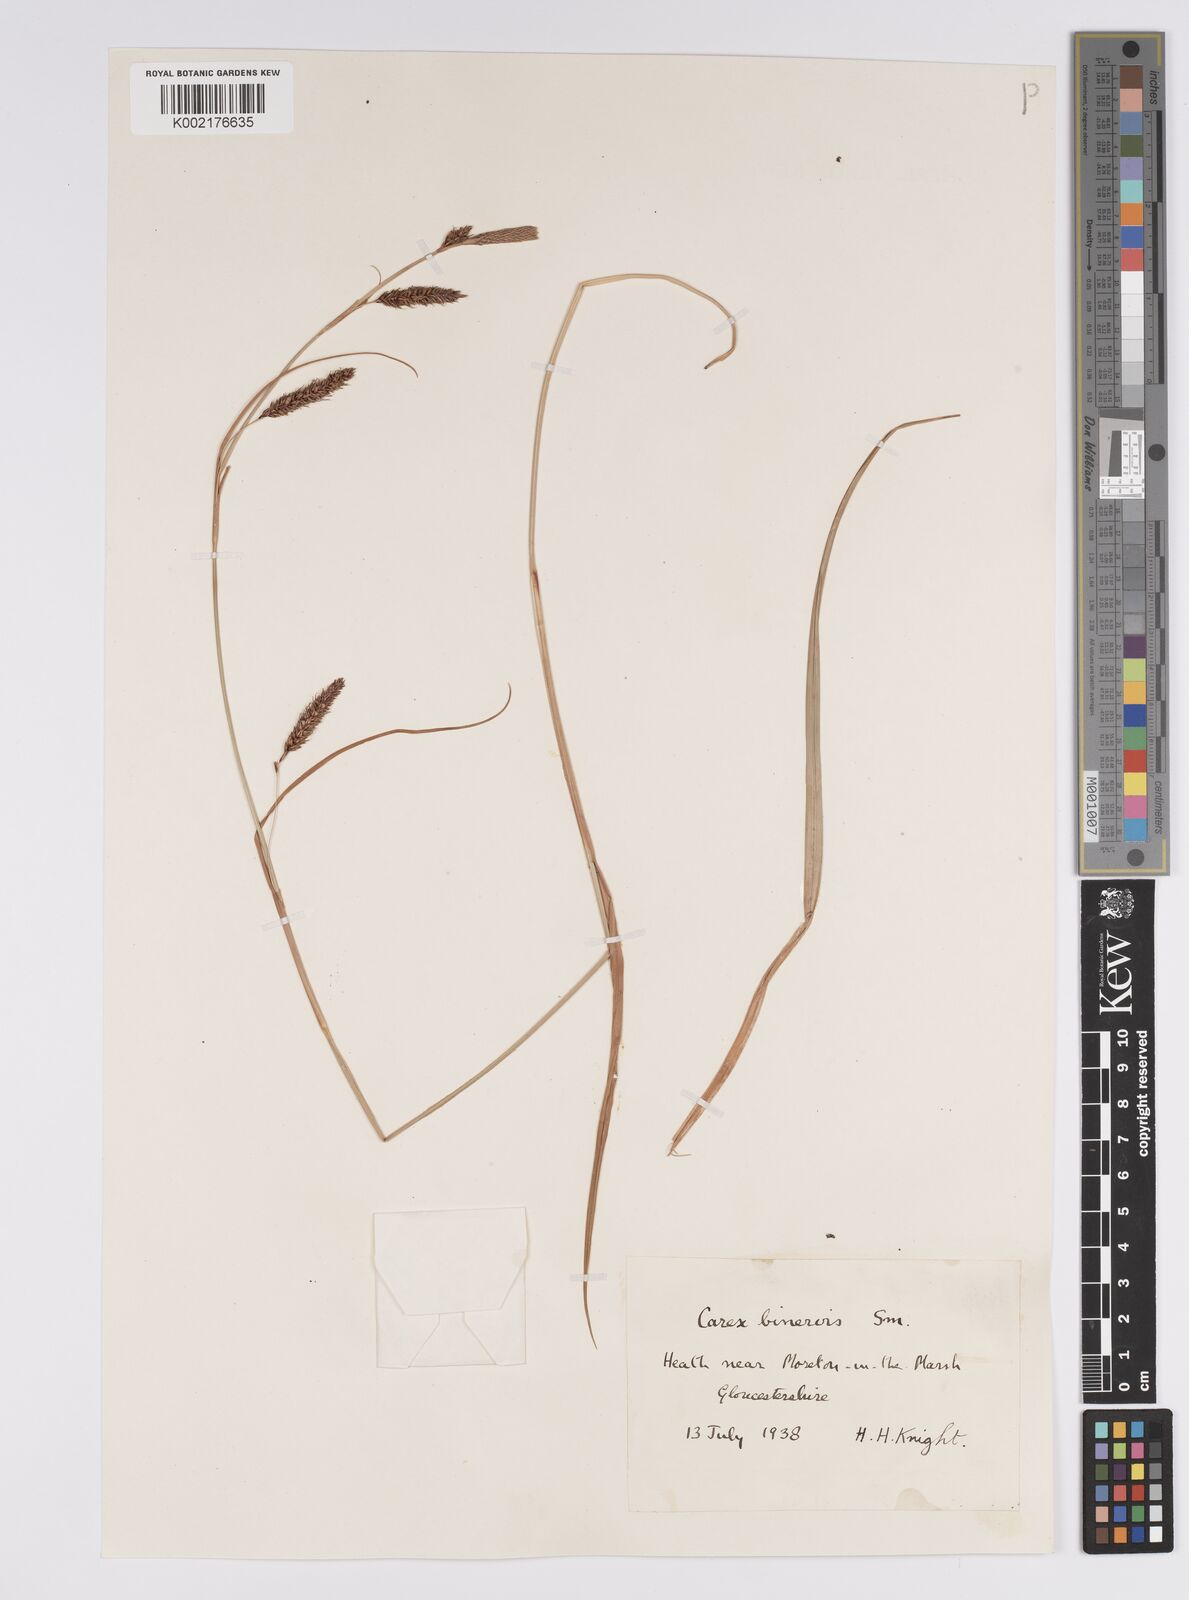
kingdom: Plantae
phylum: Tracheophyta
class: Liliopsida
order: Poales
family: Cyperaceae
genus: Carex
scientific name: Carex binervis
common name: Green-ribbed sedge
